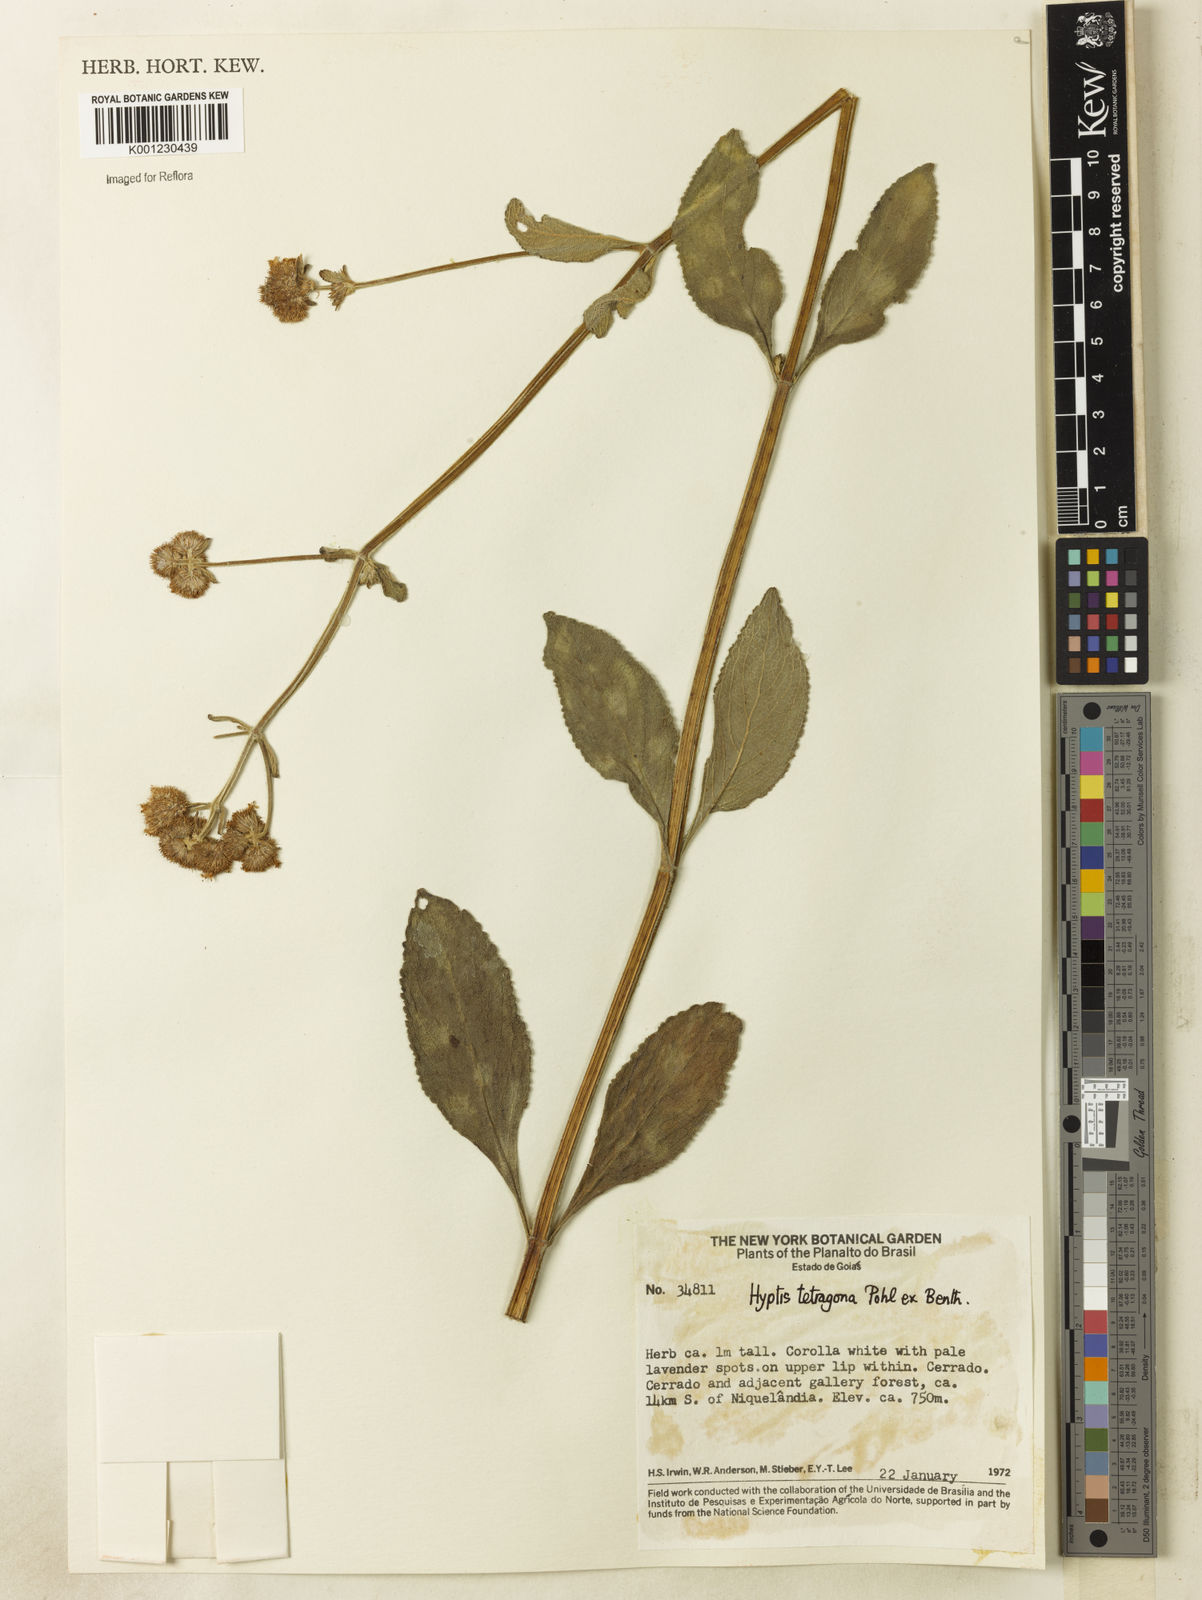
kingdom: Plantae
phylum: Tracheophyta
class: Magnoliopsida
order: Lamiales
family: Lamiaceae
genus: Hyptis
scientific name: Hyptis
